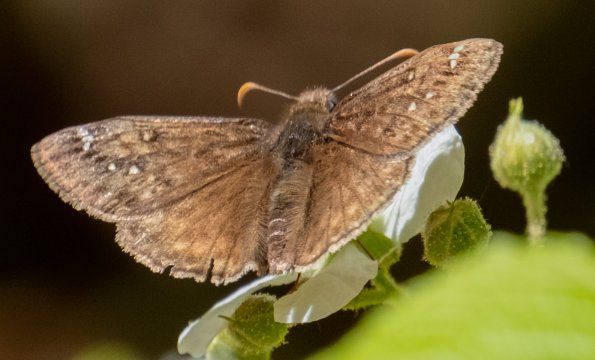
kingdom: Animalia
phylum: Arthropoda
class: Insecta
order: Lepidoptera
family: Hesperiidae
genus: Gesta
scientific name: Gesta
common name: Juvenal's Duskywing
